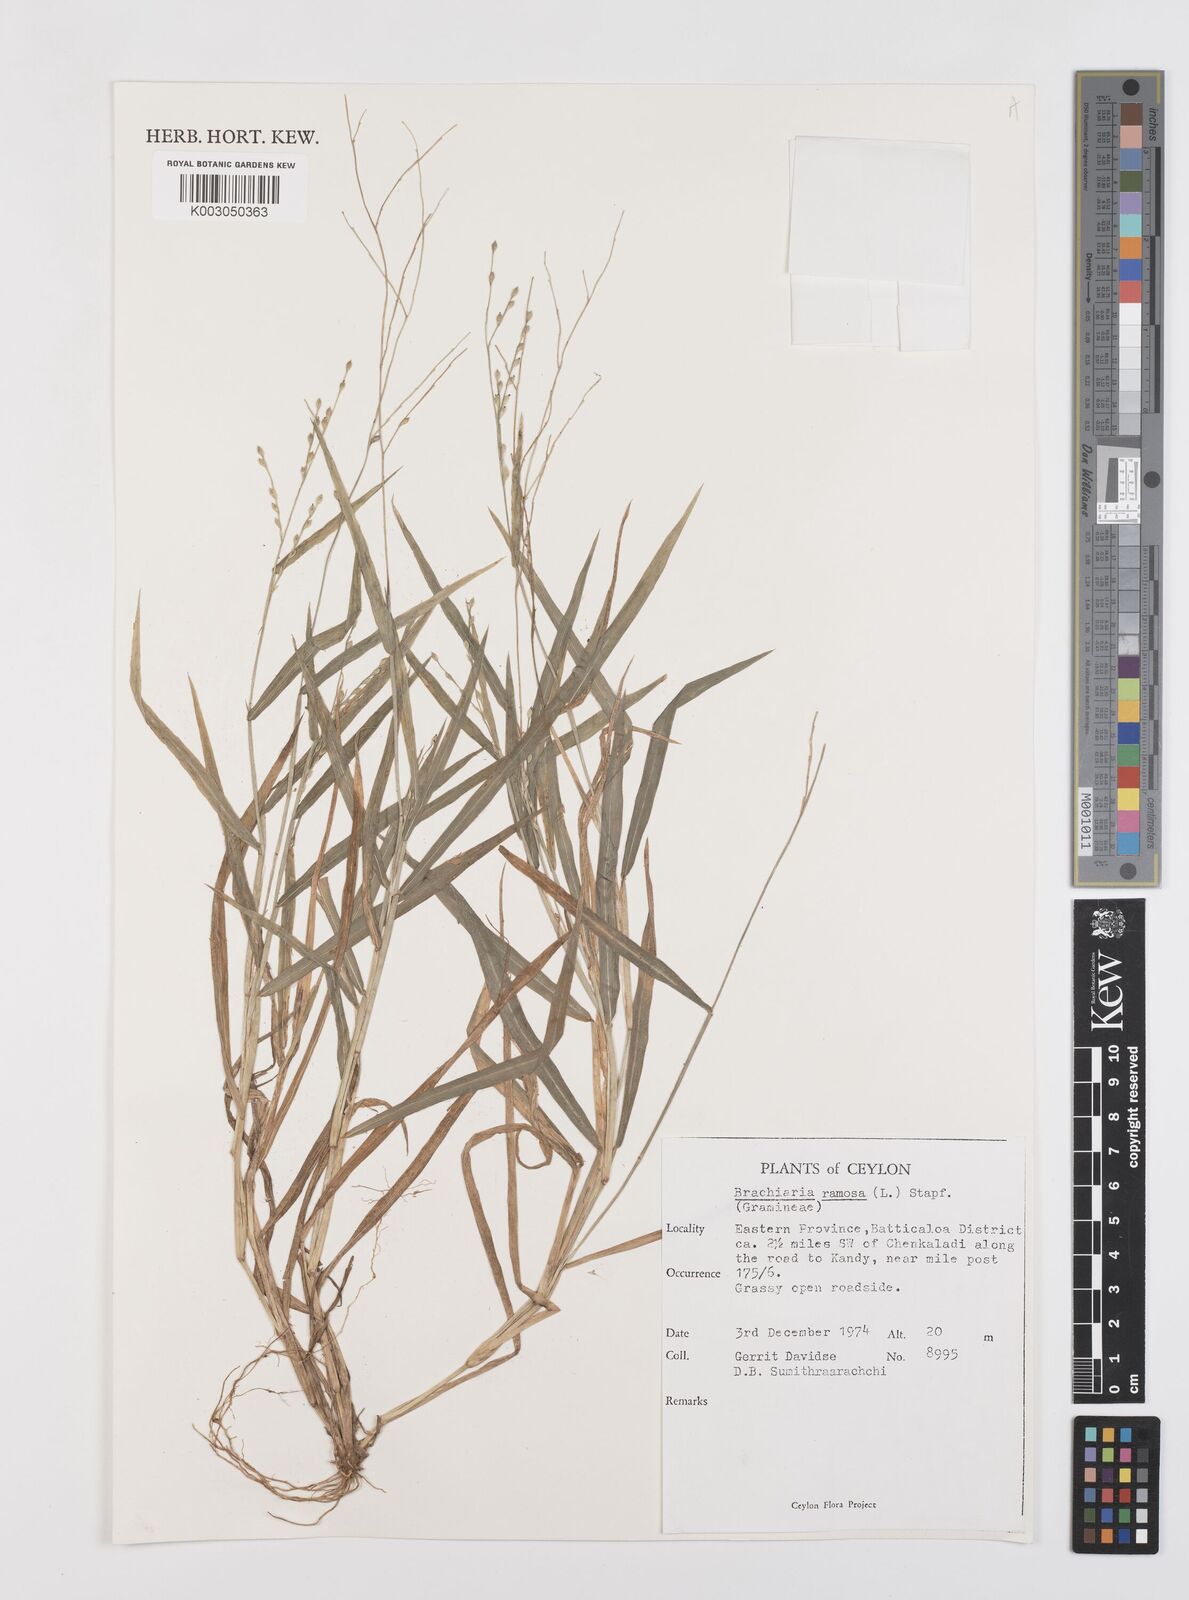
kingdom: Plantae
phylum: Tracheophyta
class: Liliopsida
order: Poales
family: Poaceae
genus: Urochloa
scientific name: Urochloa ramosa
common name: Browntop millet
